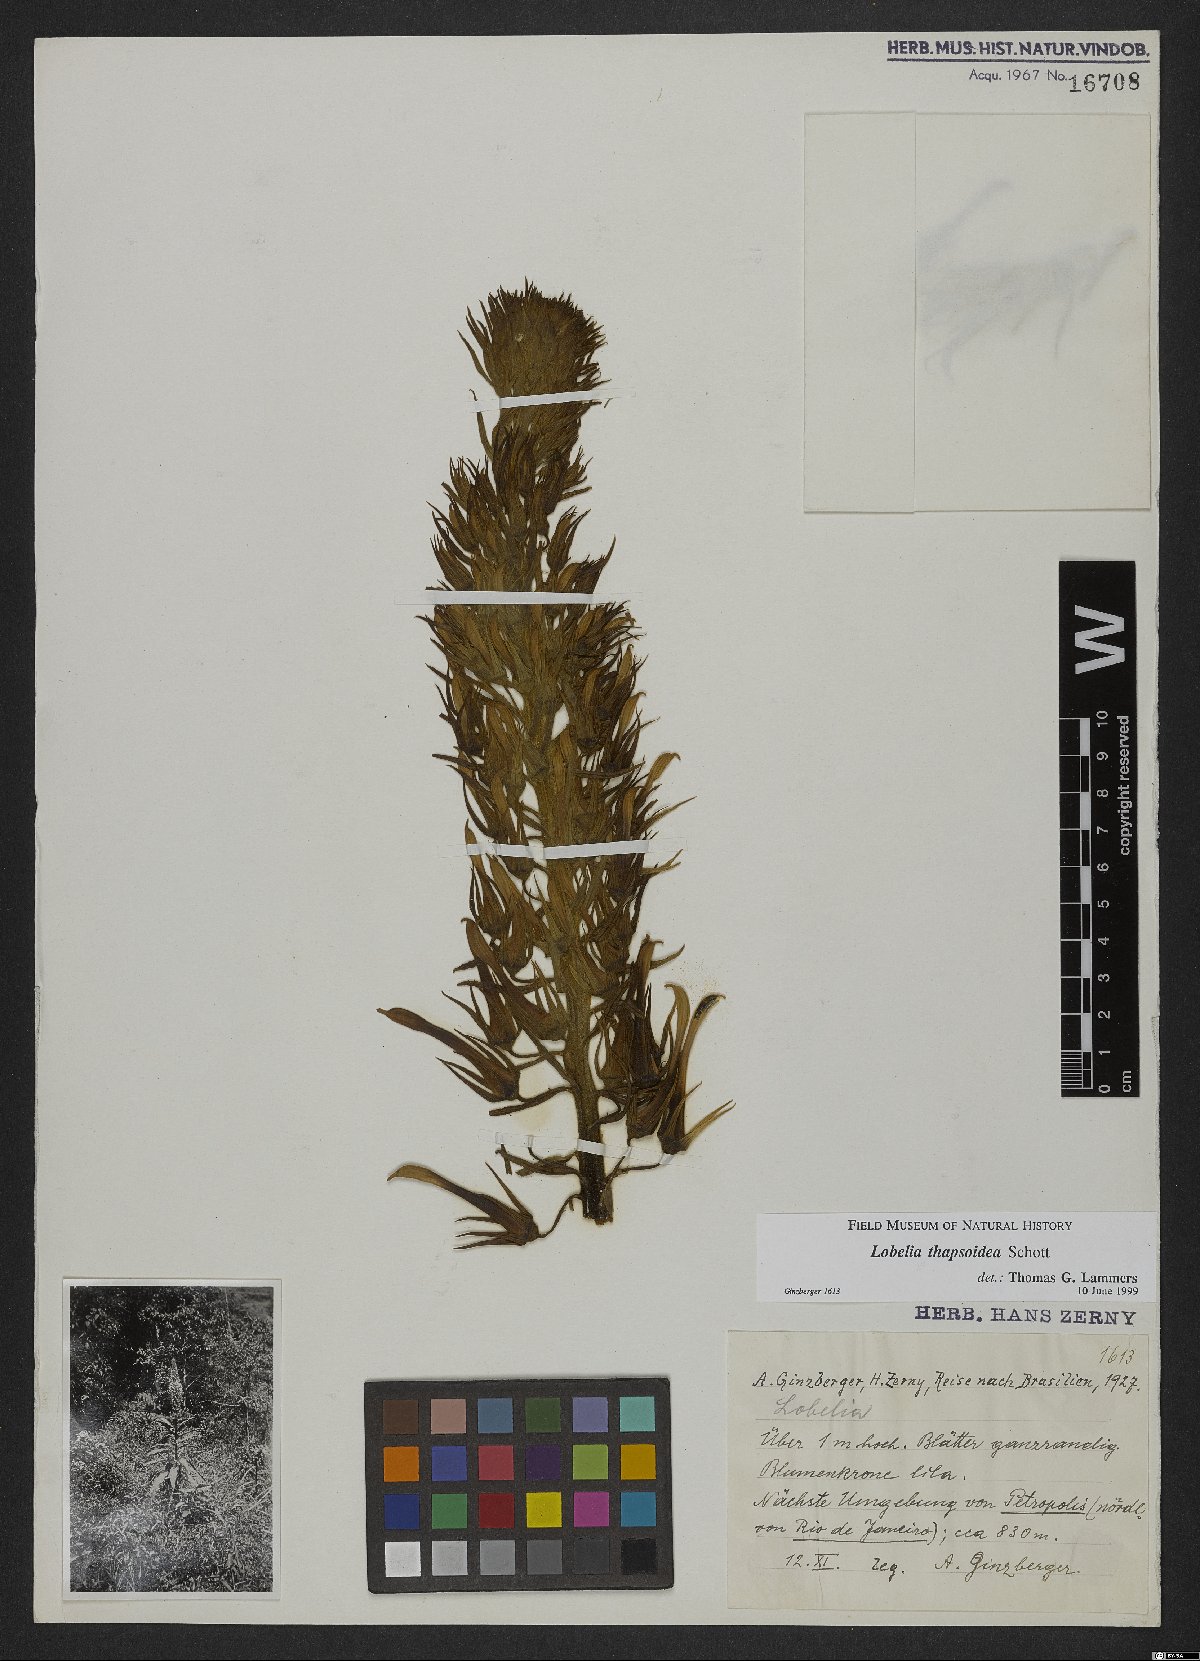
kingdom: Plantae
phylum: Tracheophyta
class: Magnoliopsida
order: Asterales
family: Campanulaceae
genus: Lobelia
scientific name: Lobelia thapsoidea
